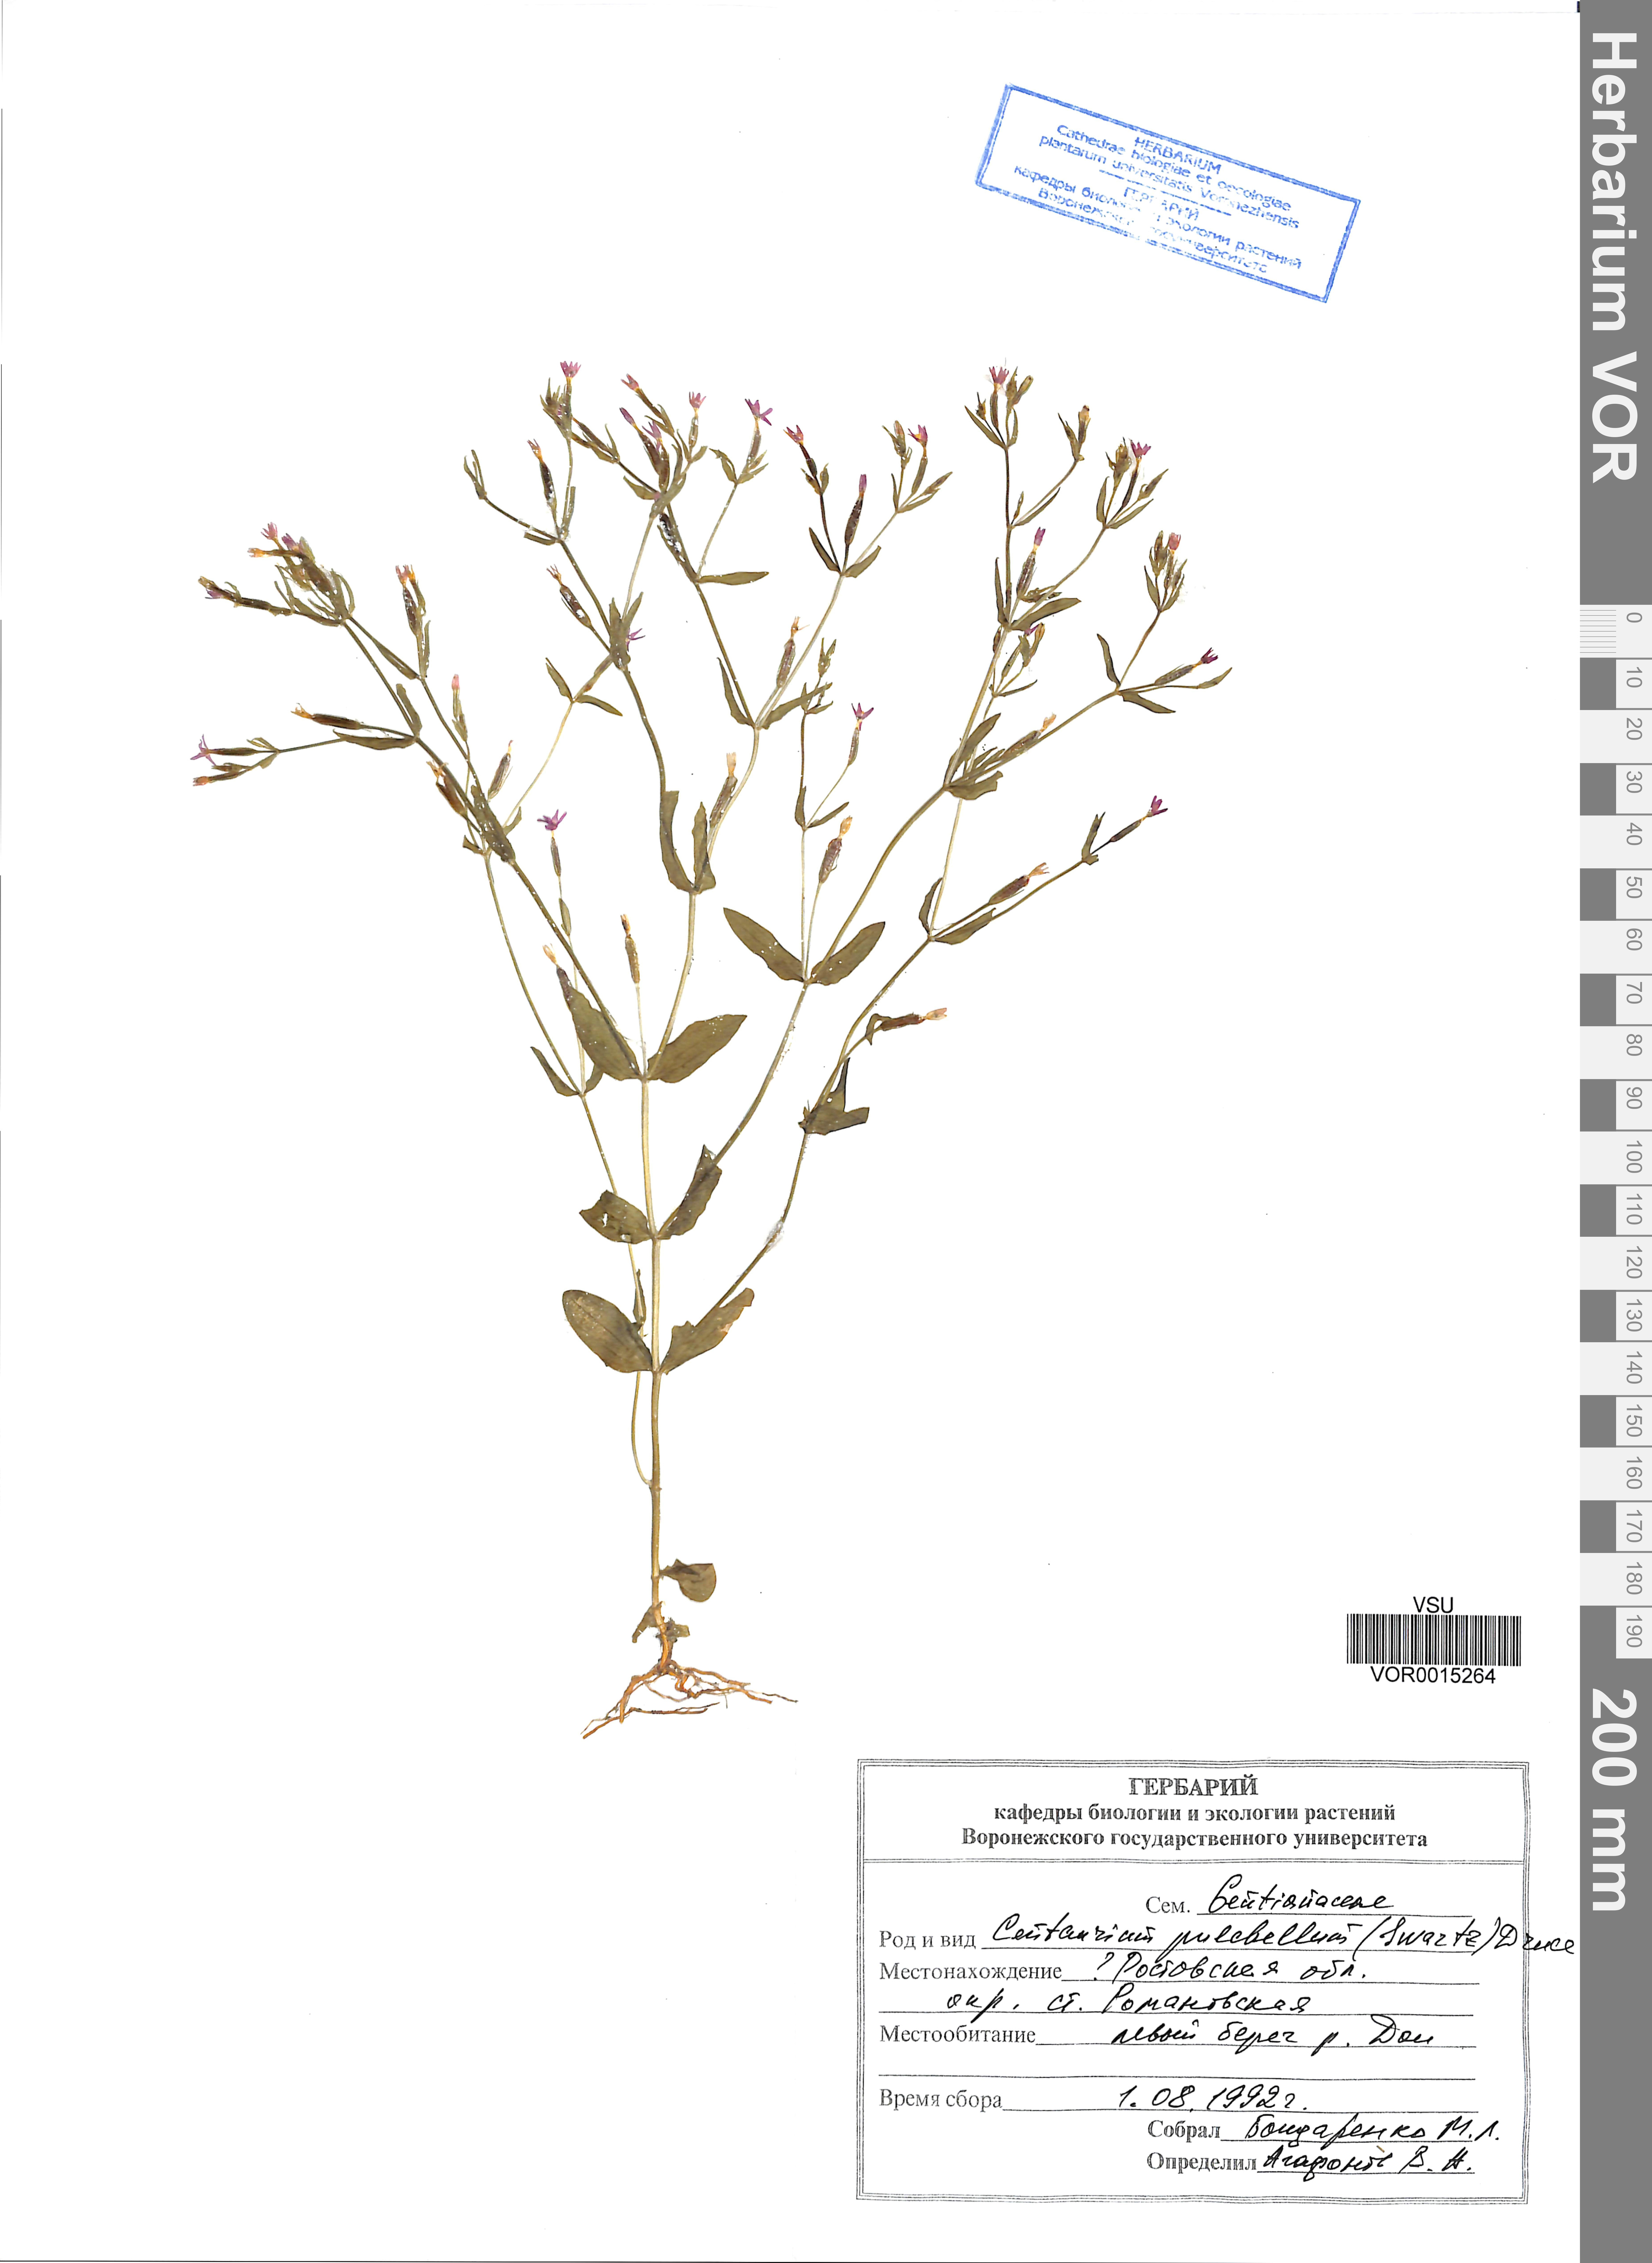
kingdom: Plantae
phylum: Tracheophyta
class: Magnoliopsida
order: Gentianales
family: Gentianaceae
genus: Centaurium
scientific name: Centaurium pulchellum
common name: Lesser centaury
